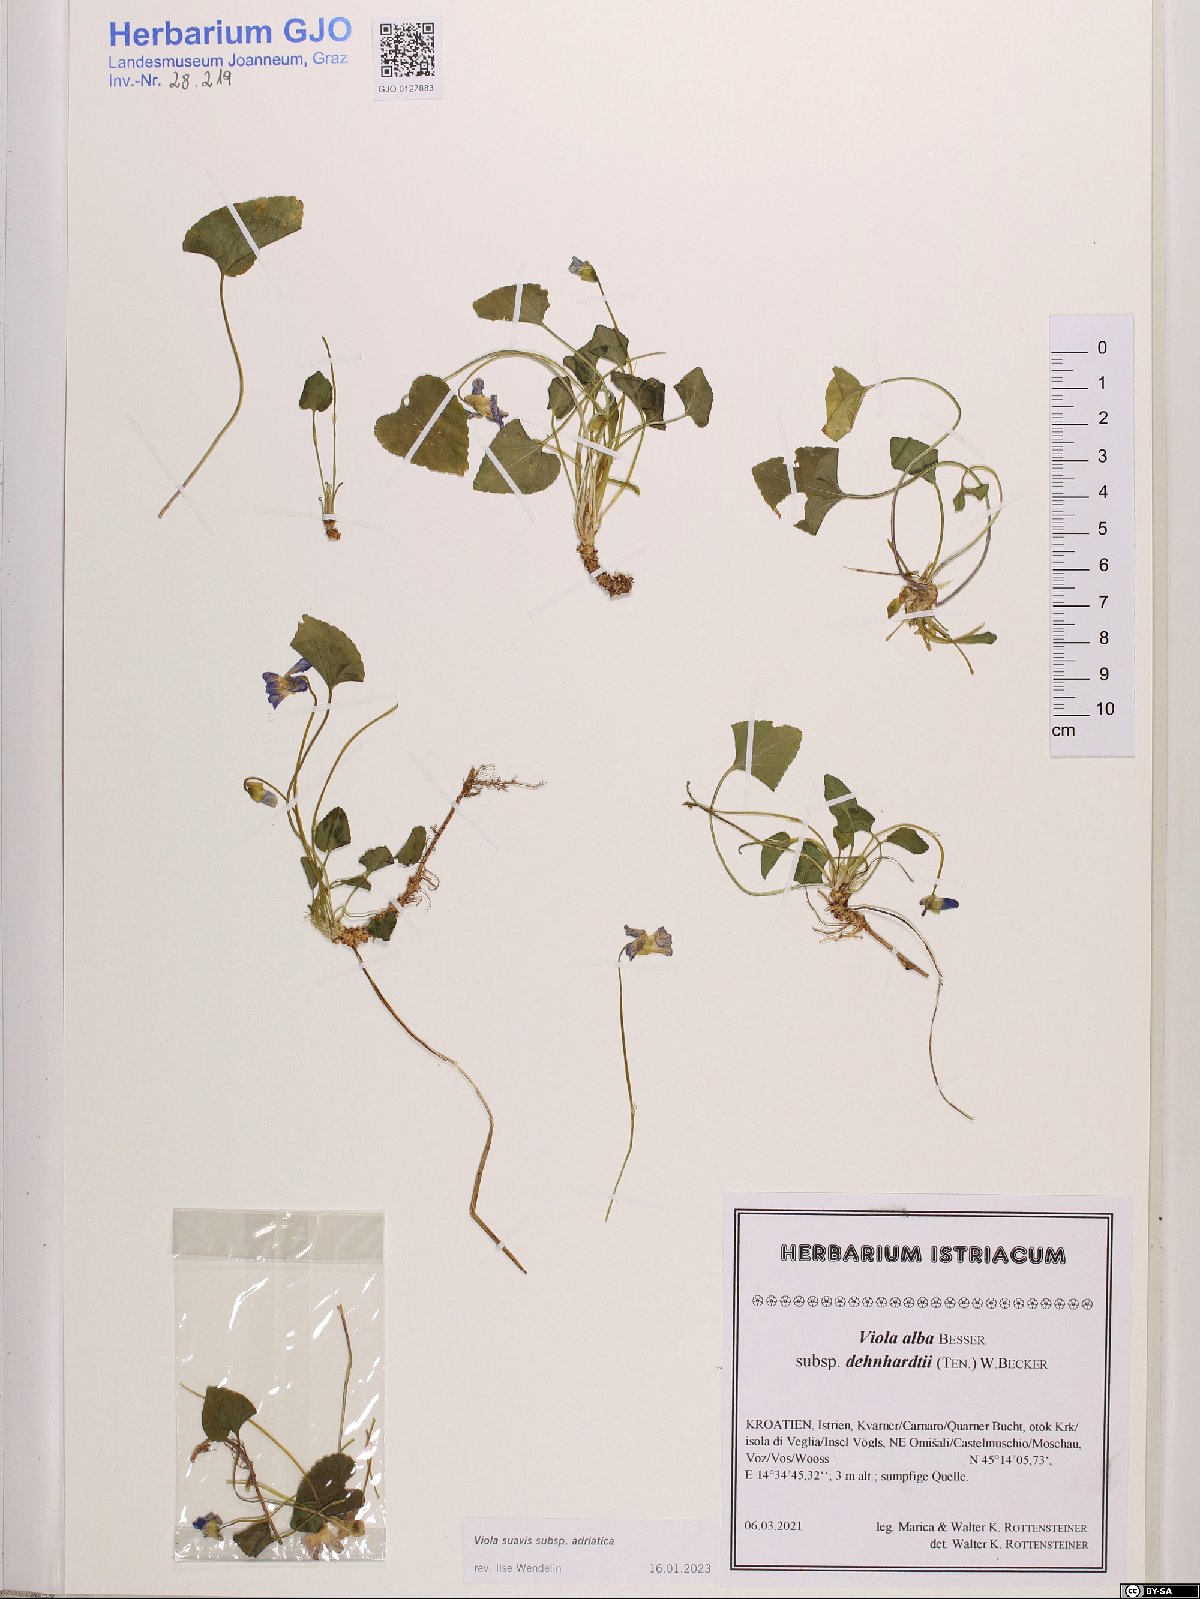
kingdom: Plantae
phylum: Tracheophyta
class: Magnoliopsida
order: Malpighiales
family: Violaceae
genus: Viola
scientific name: Viola suavis
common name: Russian violet
